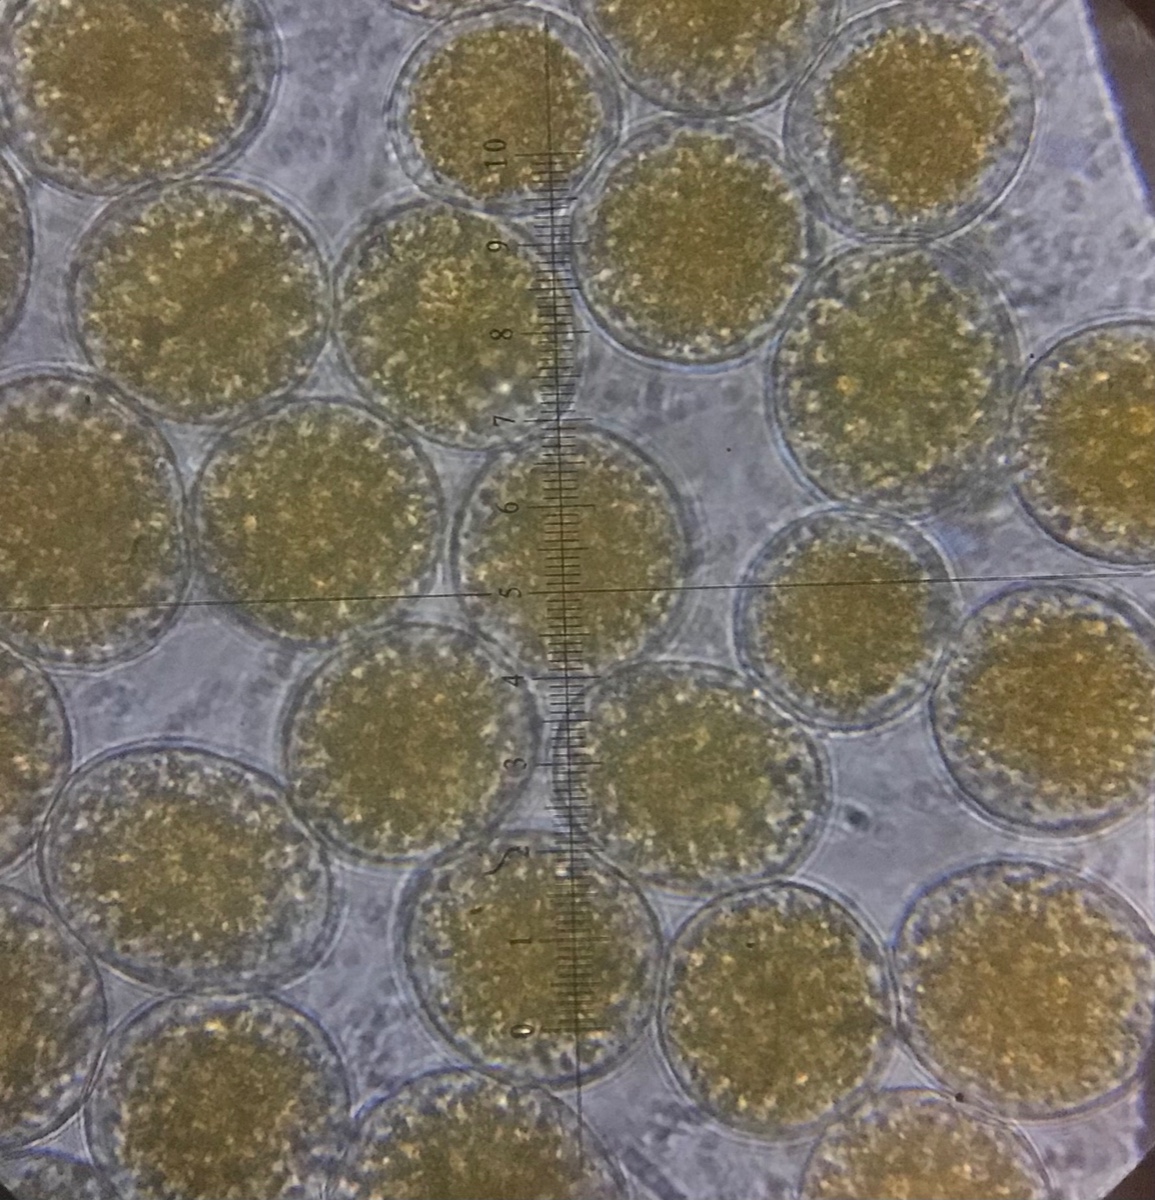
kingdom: Fungi
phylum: Basidiomycota
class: Pucciniomycetes
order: Pucciniales
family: Pucciniaceae
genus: Puccinia
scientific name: Puccinia
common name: tvecellerust
